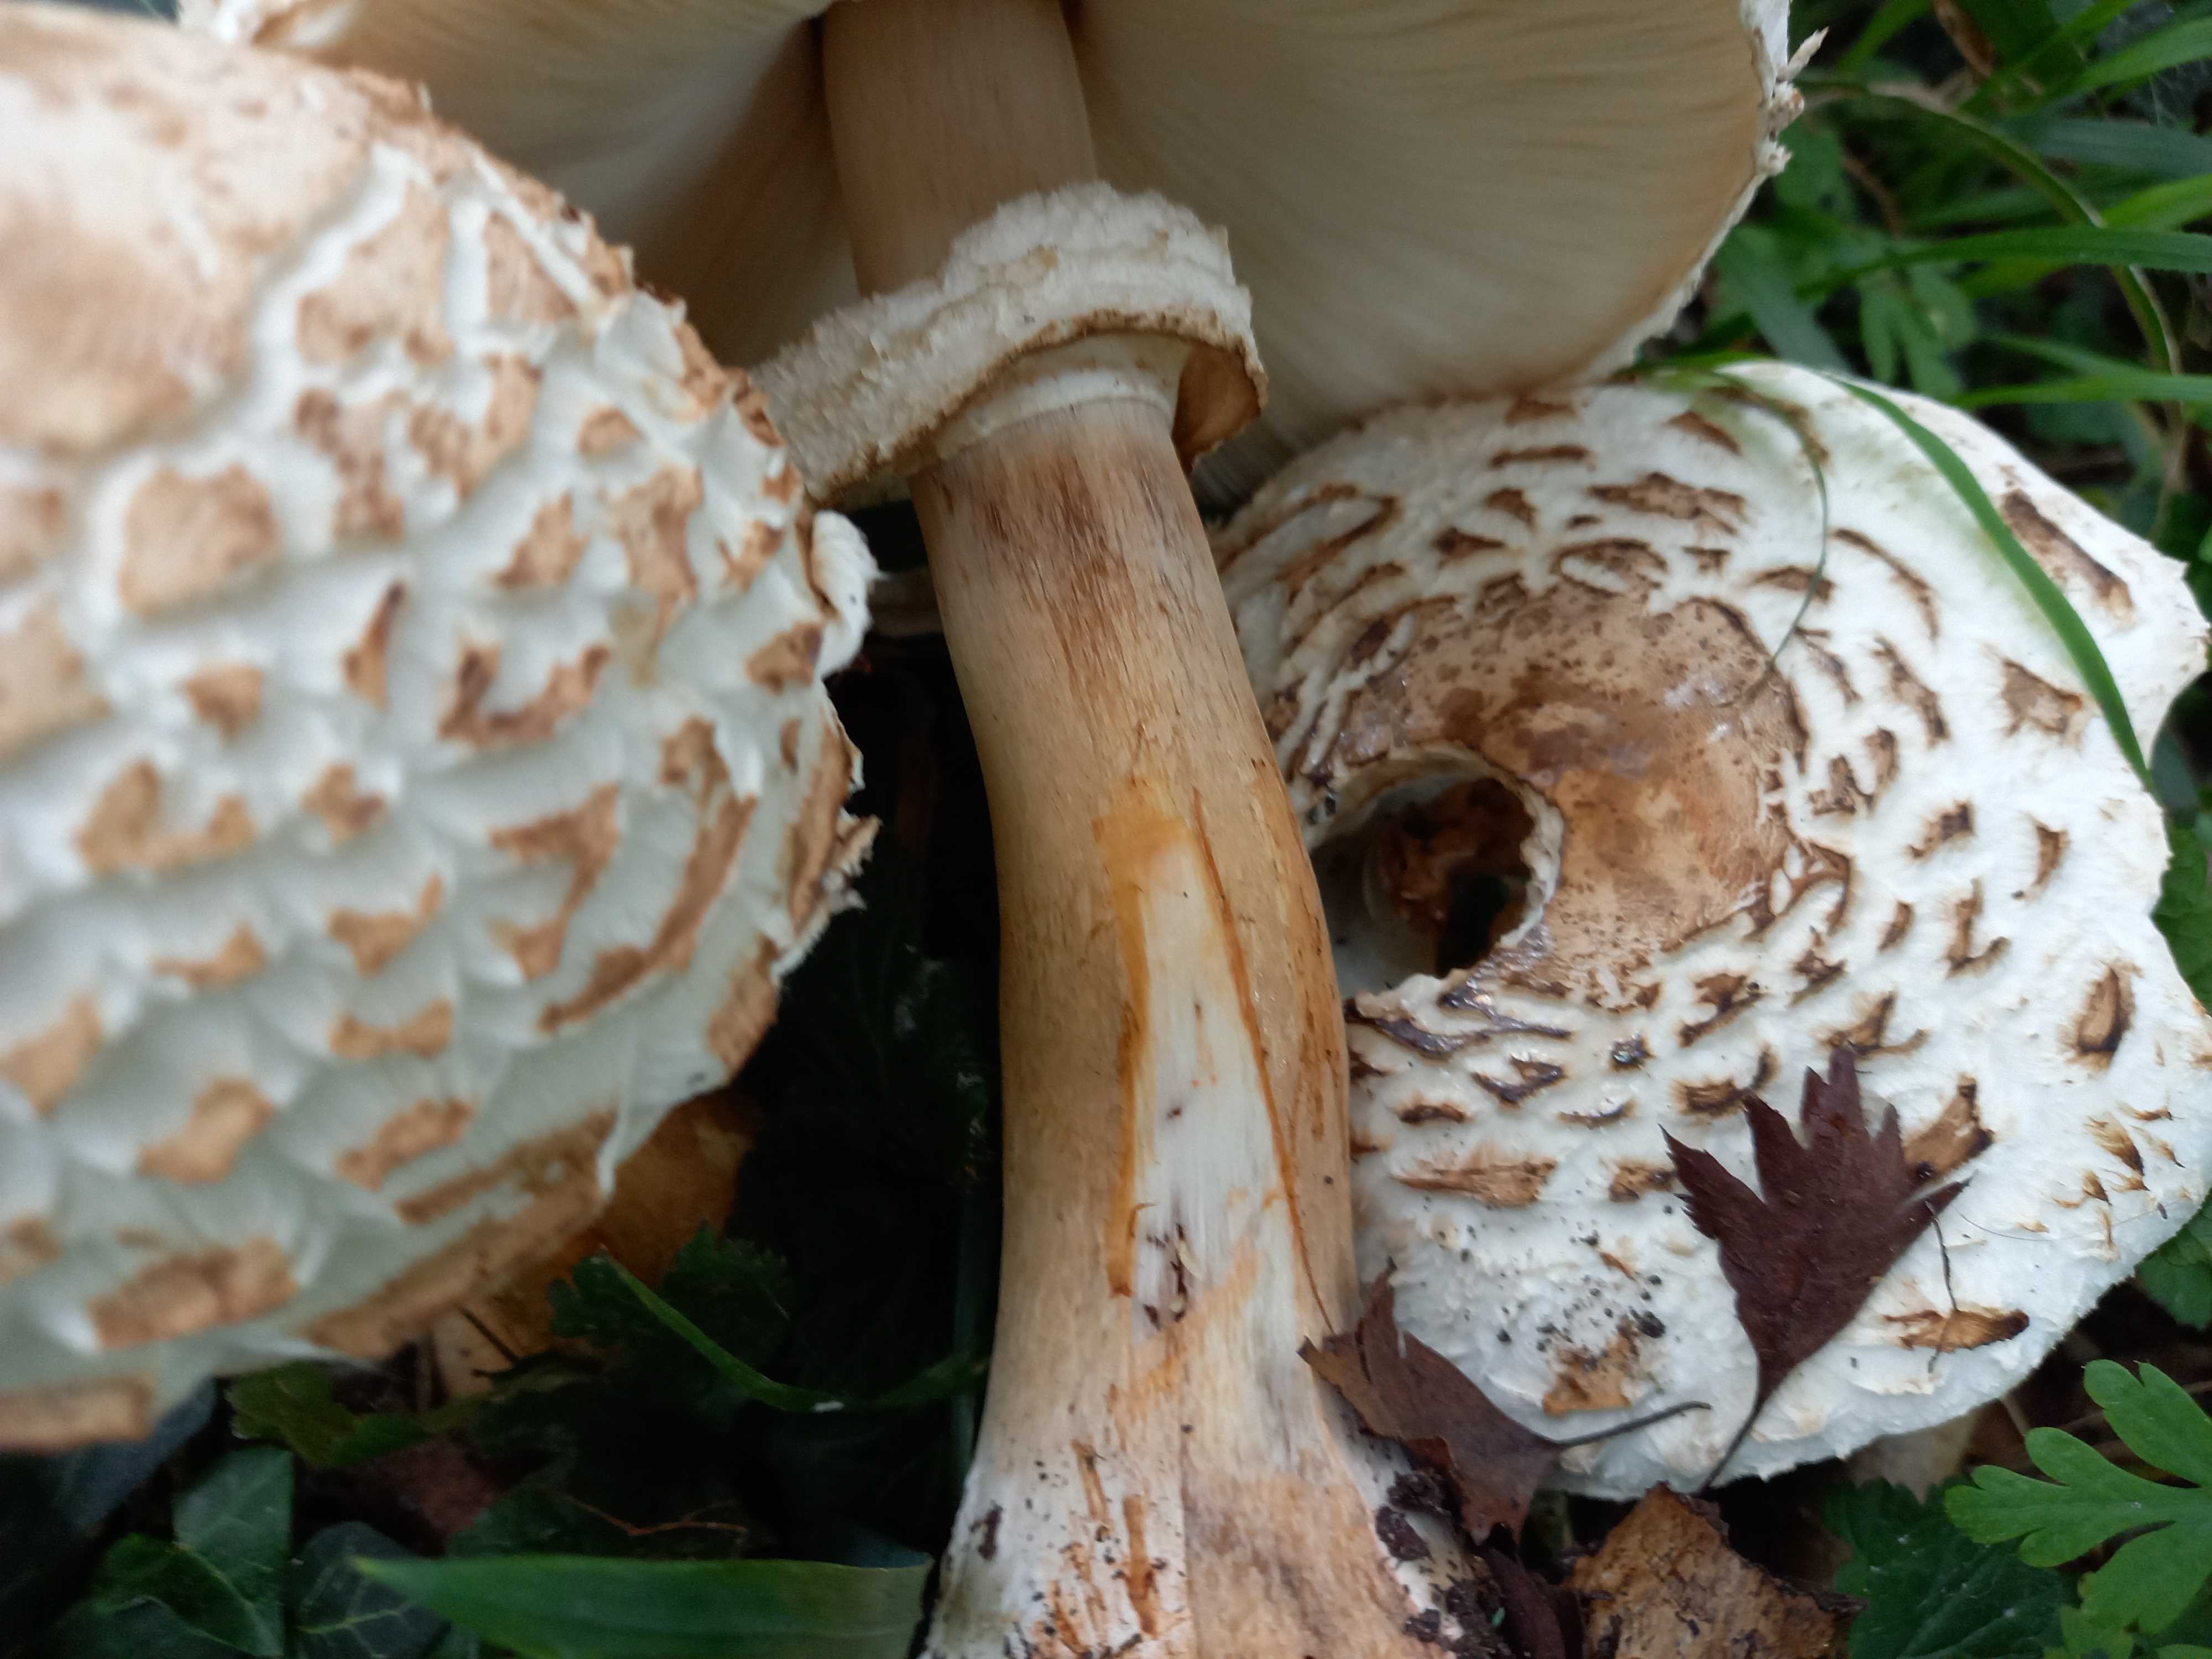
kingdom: Fungi
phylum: Basidiomycota
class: Agaricomycetes
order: Agaricales
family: Agaricaceae
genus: Chlorophyllum
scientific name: Chlorophyllum rhacodes
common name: ægte rabarberhat
